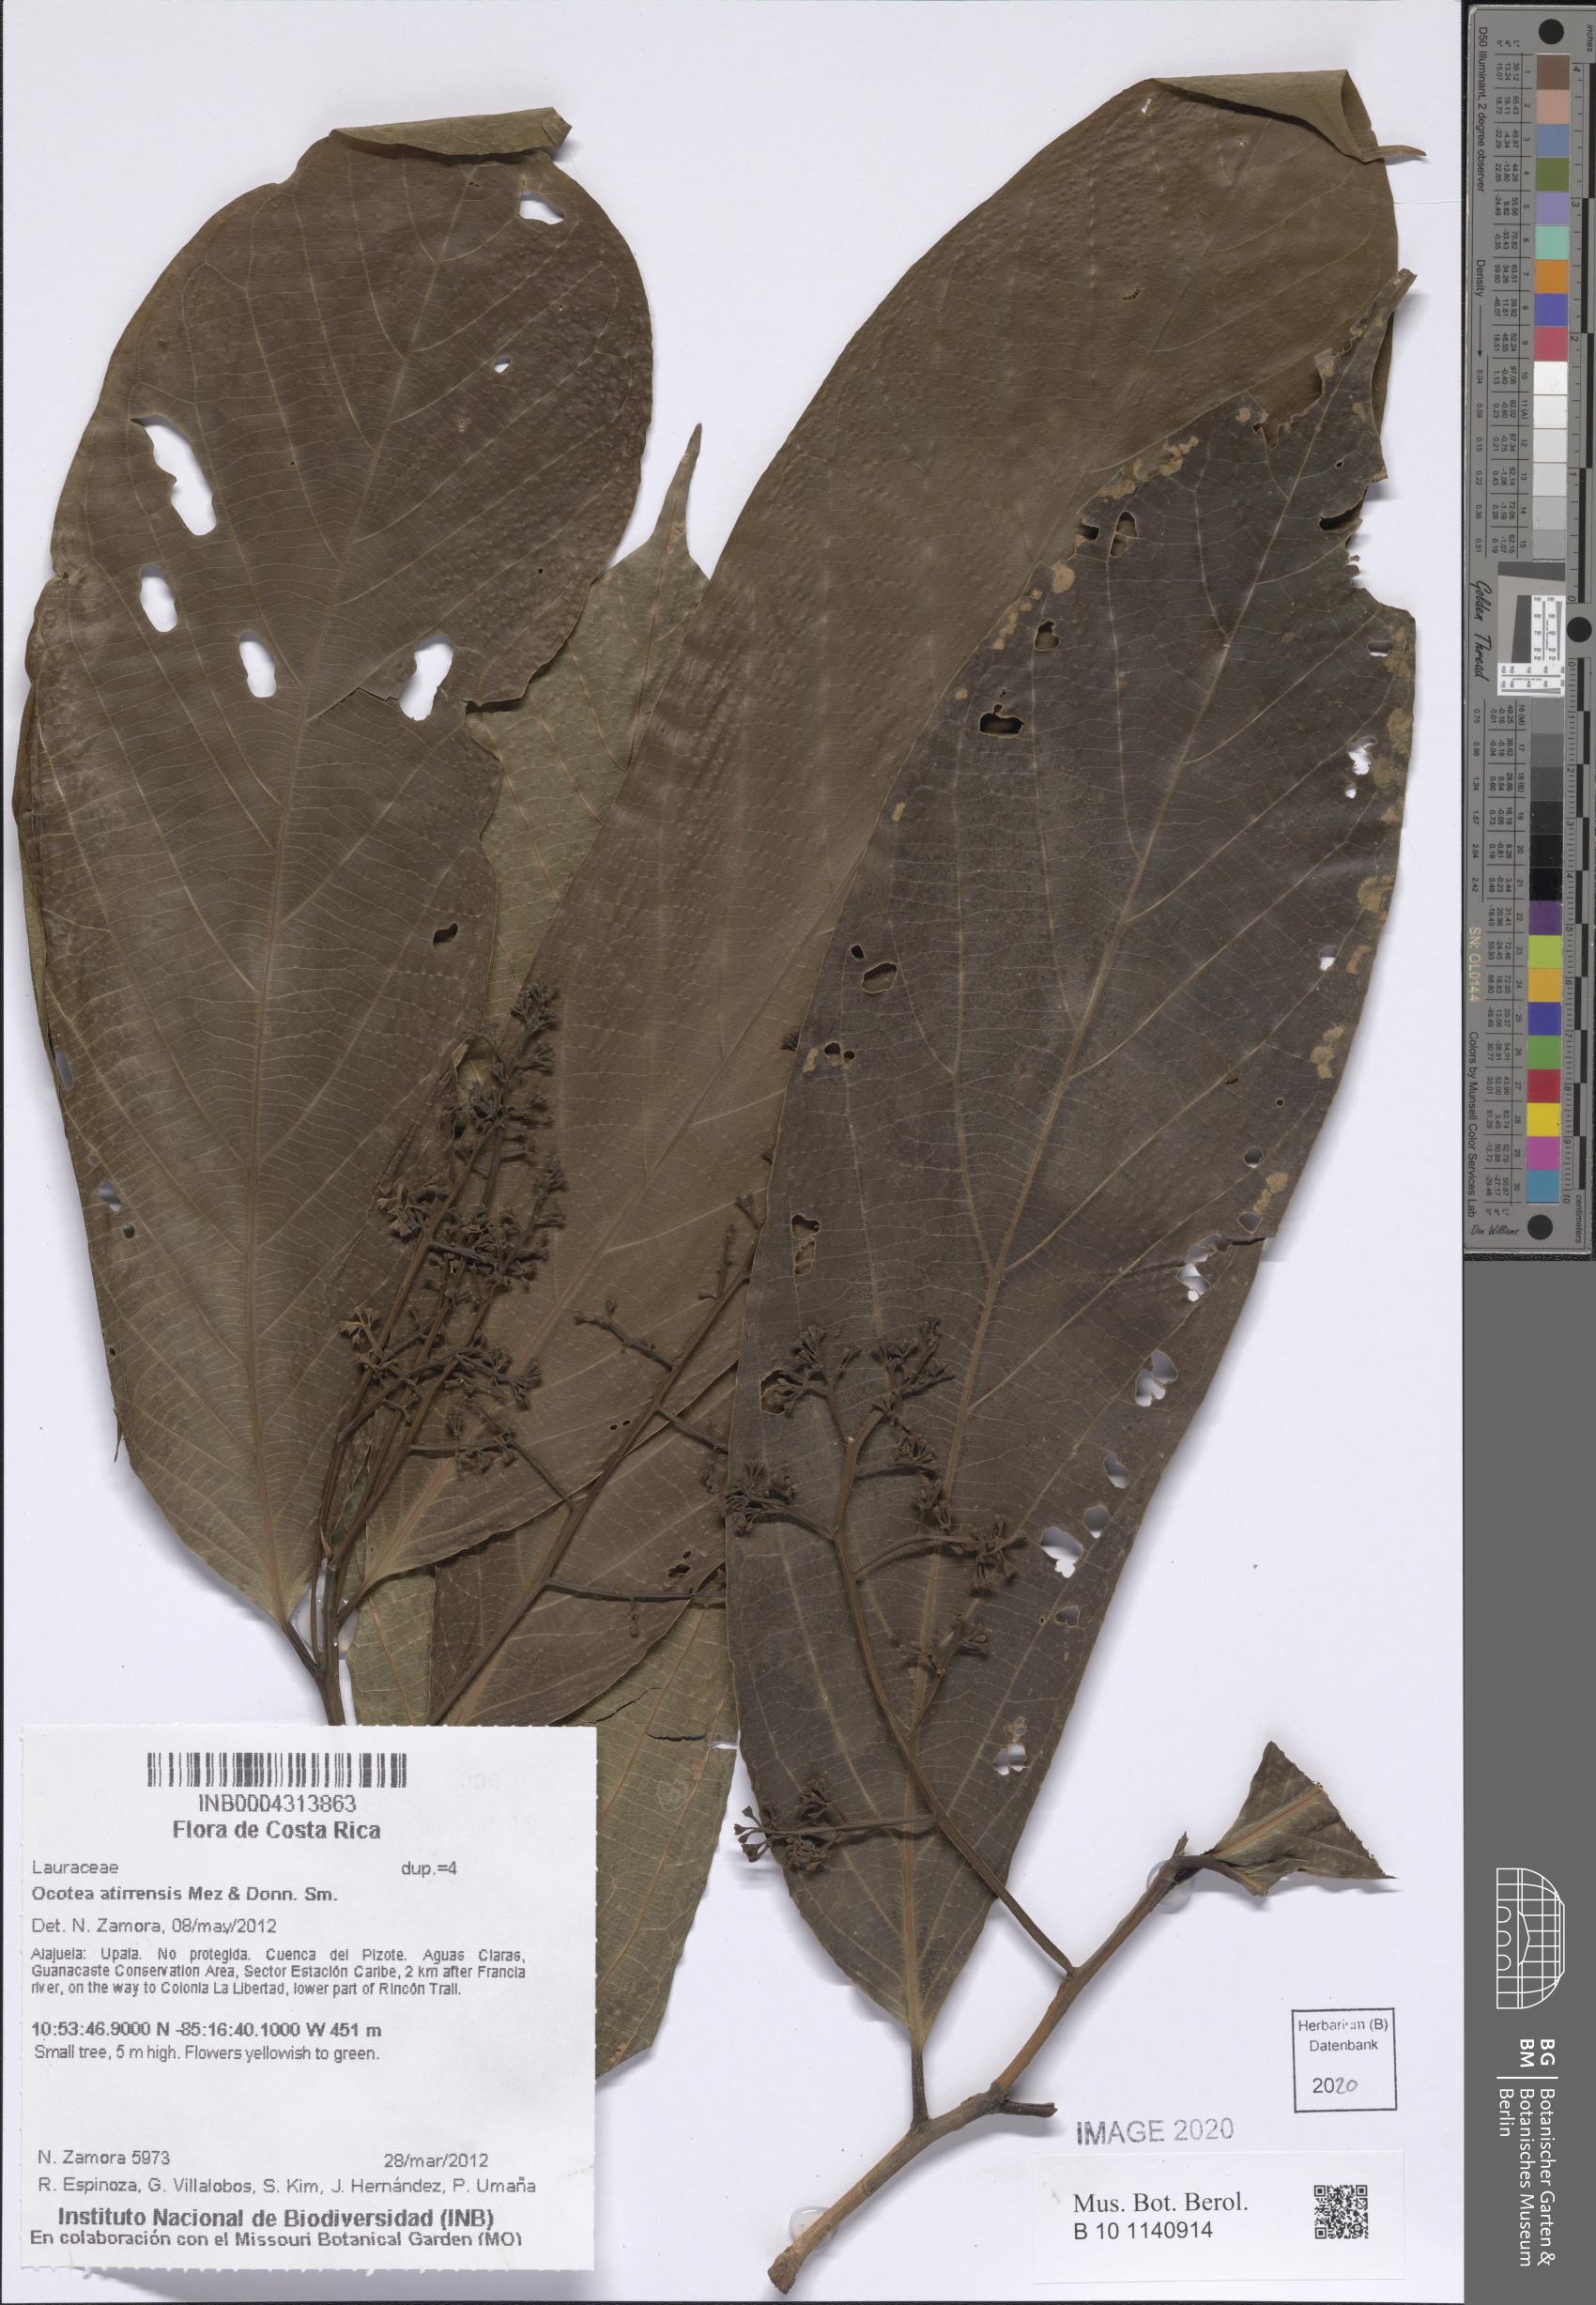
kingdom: Plantae
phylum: Tracheophyta
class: Magnoliopsida
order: Laurales
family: Lauraceae
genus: Ocotea
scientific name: Ocotea atirrensis
